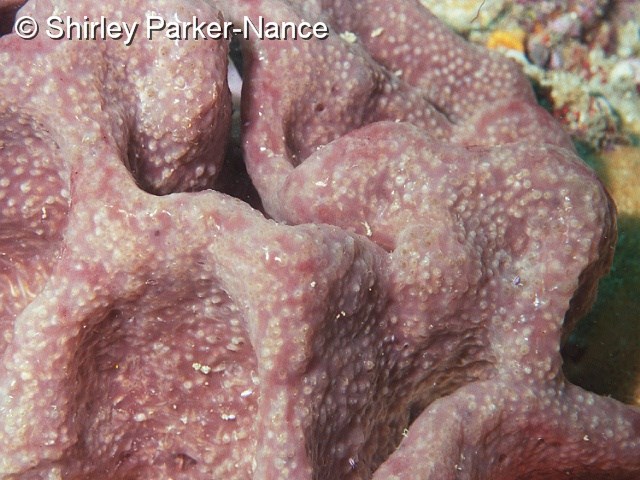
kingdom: Animalia
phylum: Chordata
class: Ascidiacea
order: Aplousobranchia
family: Pseudodistomidae
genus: Pseudodistoma
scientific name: Pseudodistoma
